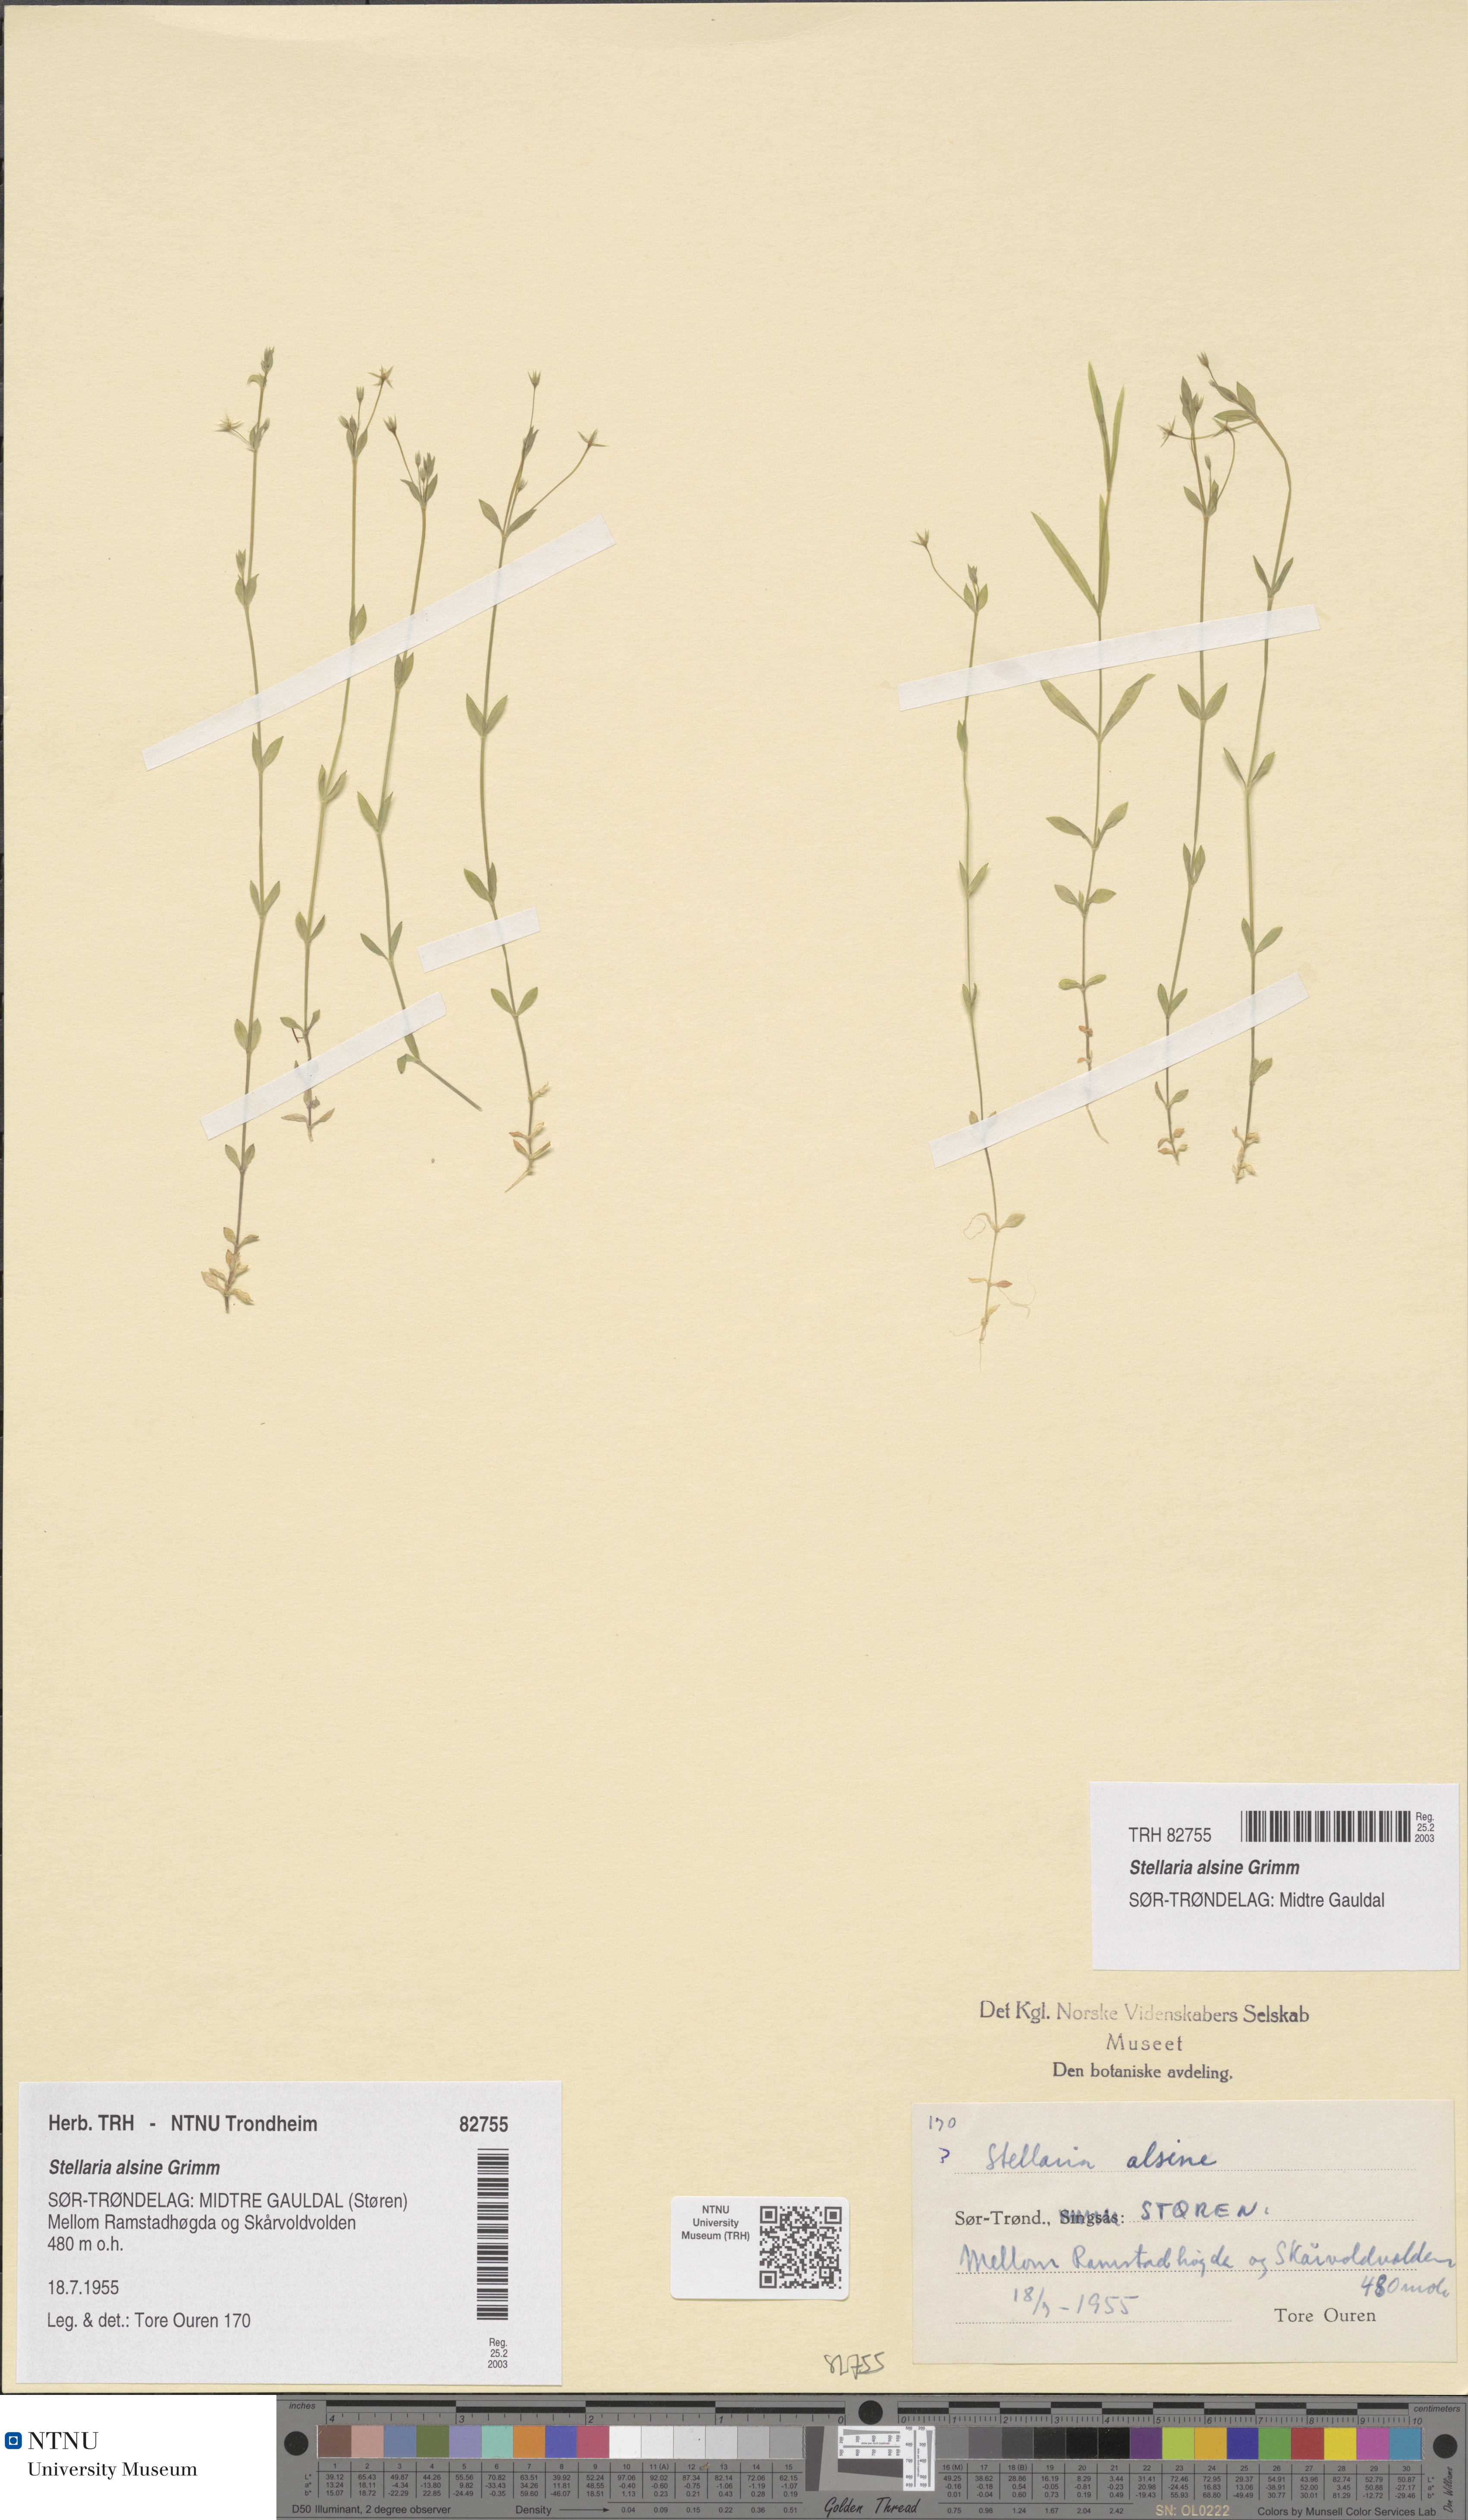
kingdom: Plantae
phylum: Tracheophyta
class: Magnoliopsida
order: Caryophyllales
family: Caryophyllaceae
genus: Stellaria
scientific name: Stellaria alsine
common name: Bog stitchwort
